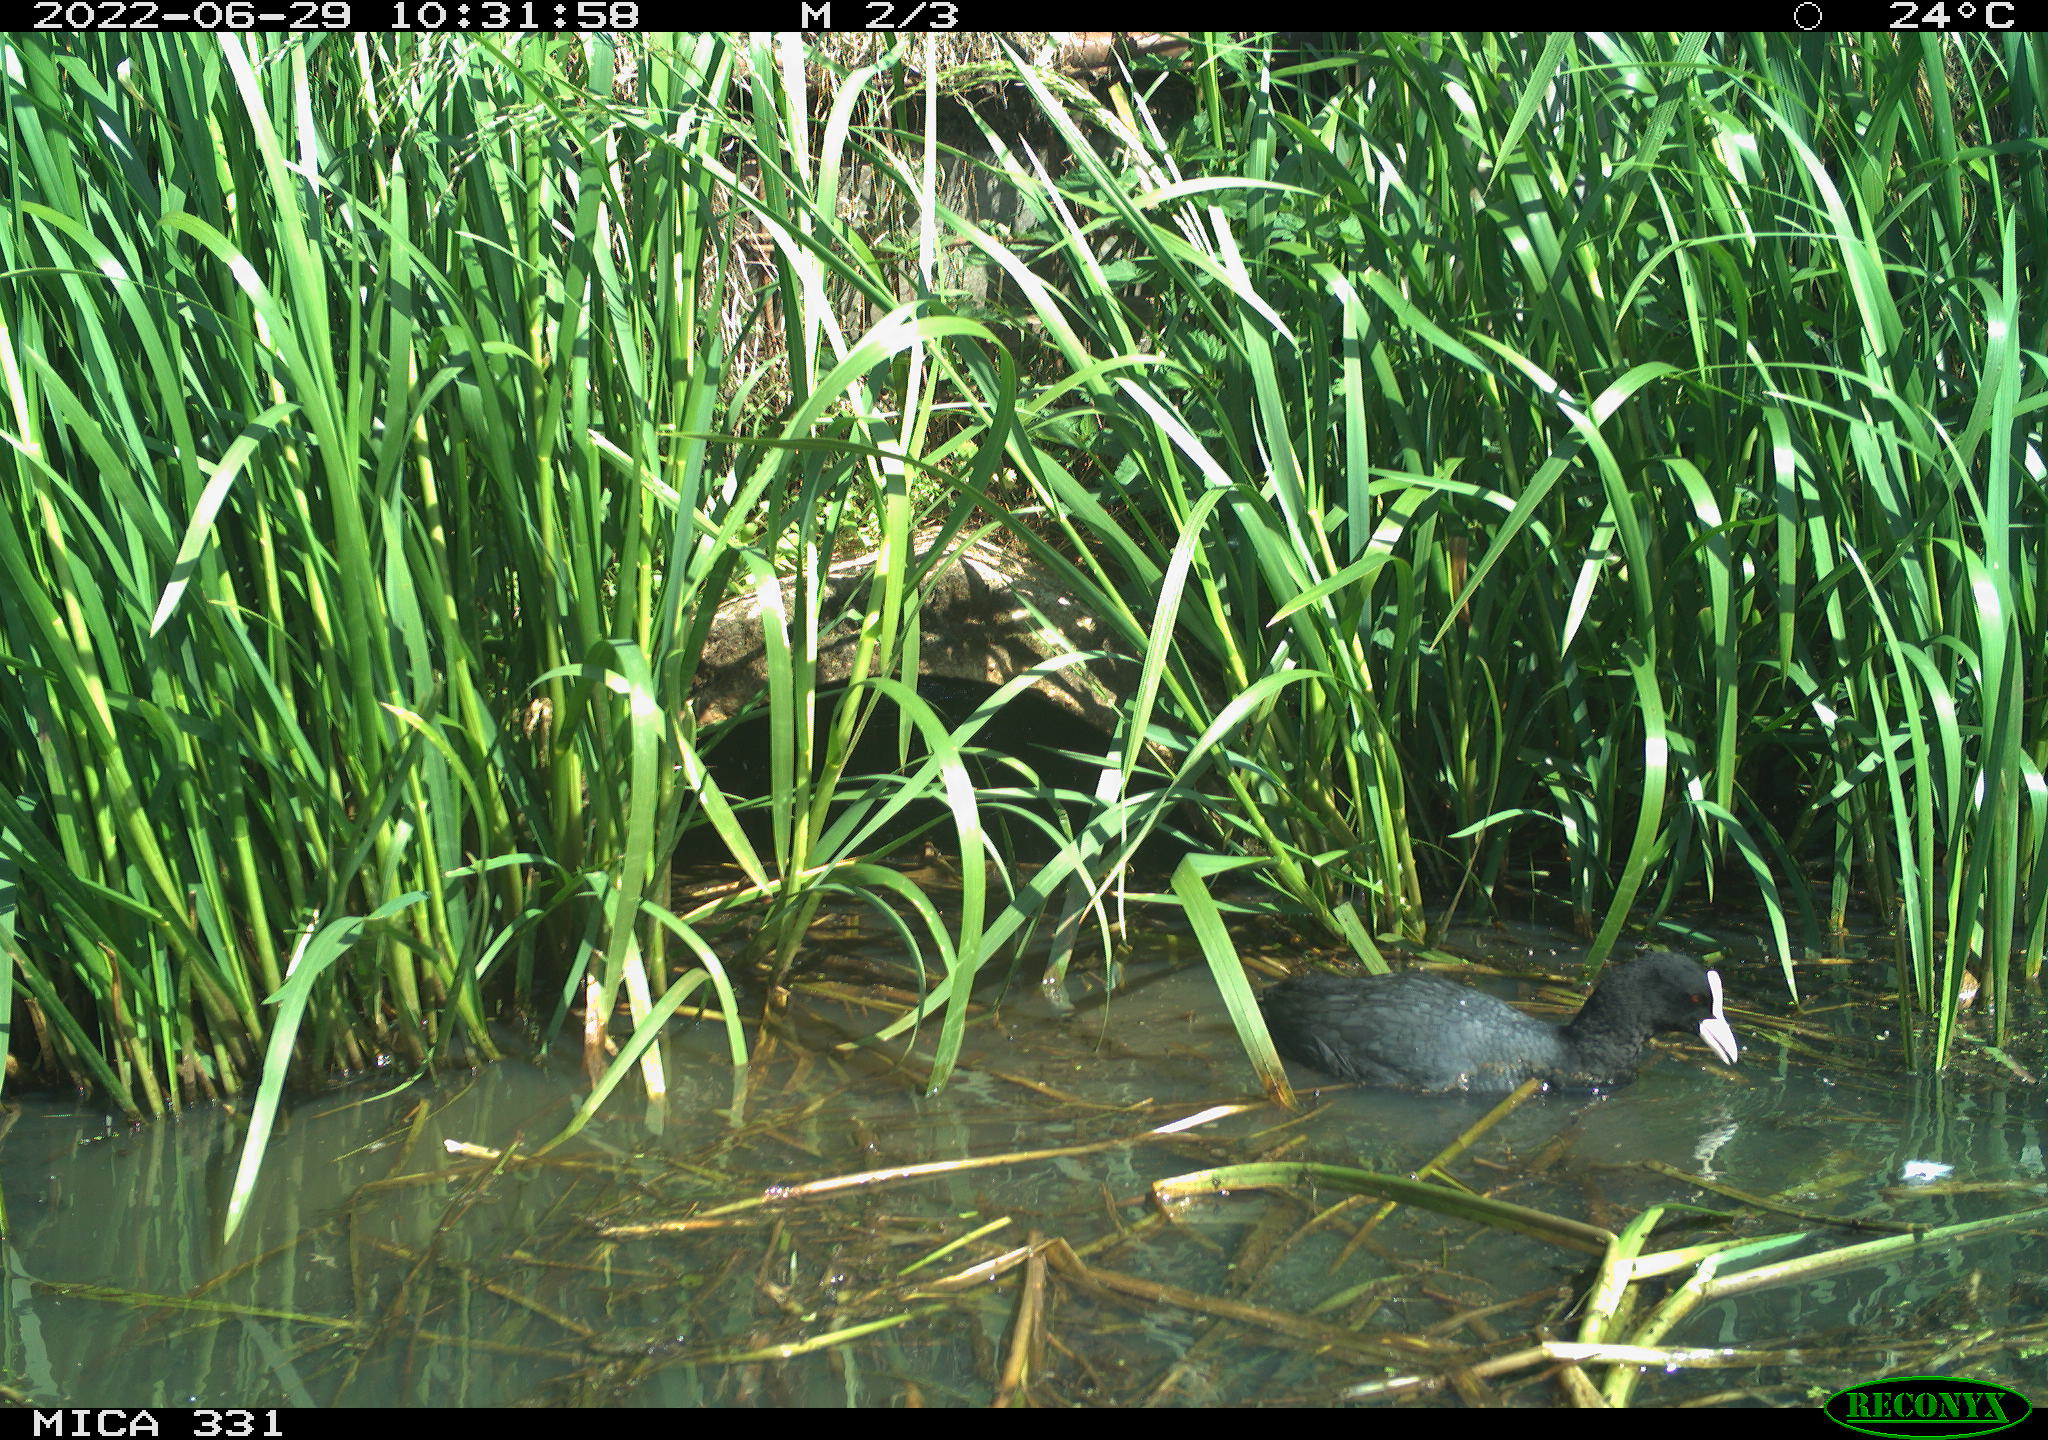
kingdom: Animalia
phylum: Chordata
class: Aves
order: Gruiformes
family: Rallidae
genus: Fulica
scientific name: Fulica atra
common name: Eurasian coot
